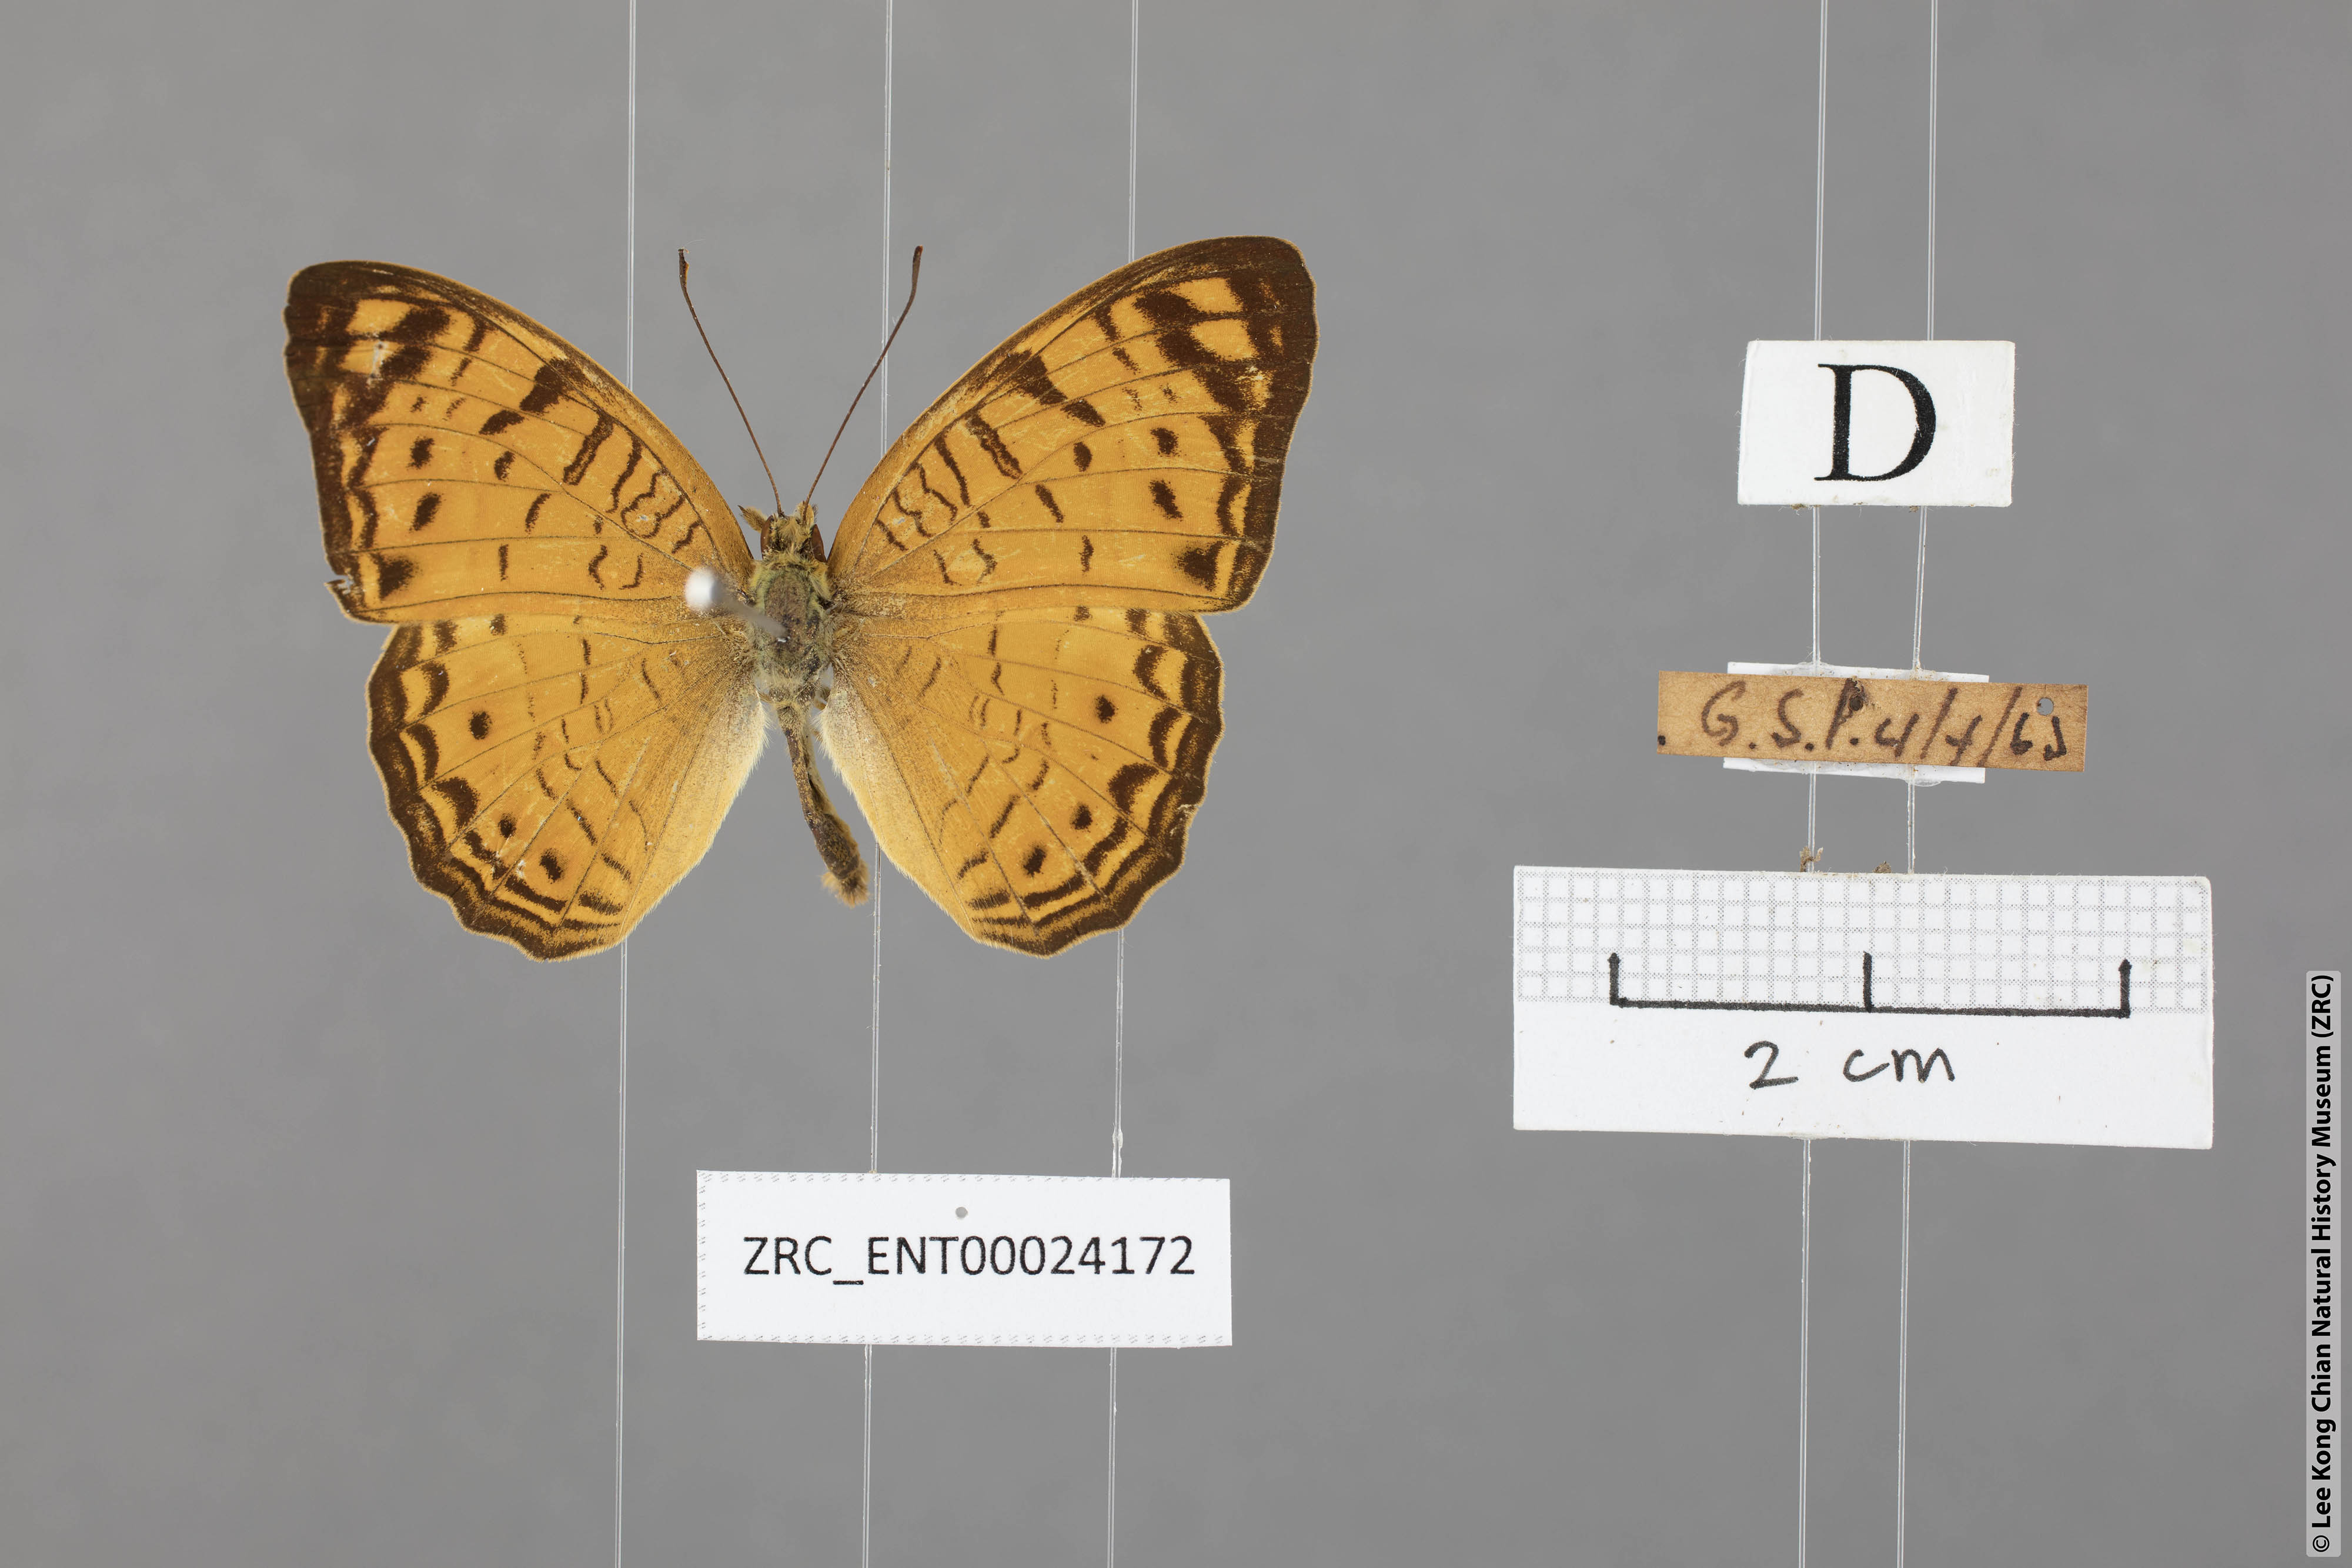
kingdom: Animalia
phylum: Arthropoda
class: Insecta
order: Lepidoptera
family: Nymphalidae
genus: Phalanta
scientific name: Phalanta alcippe
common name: Small leopard
